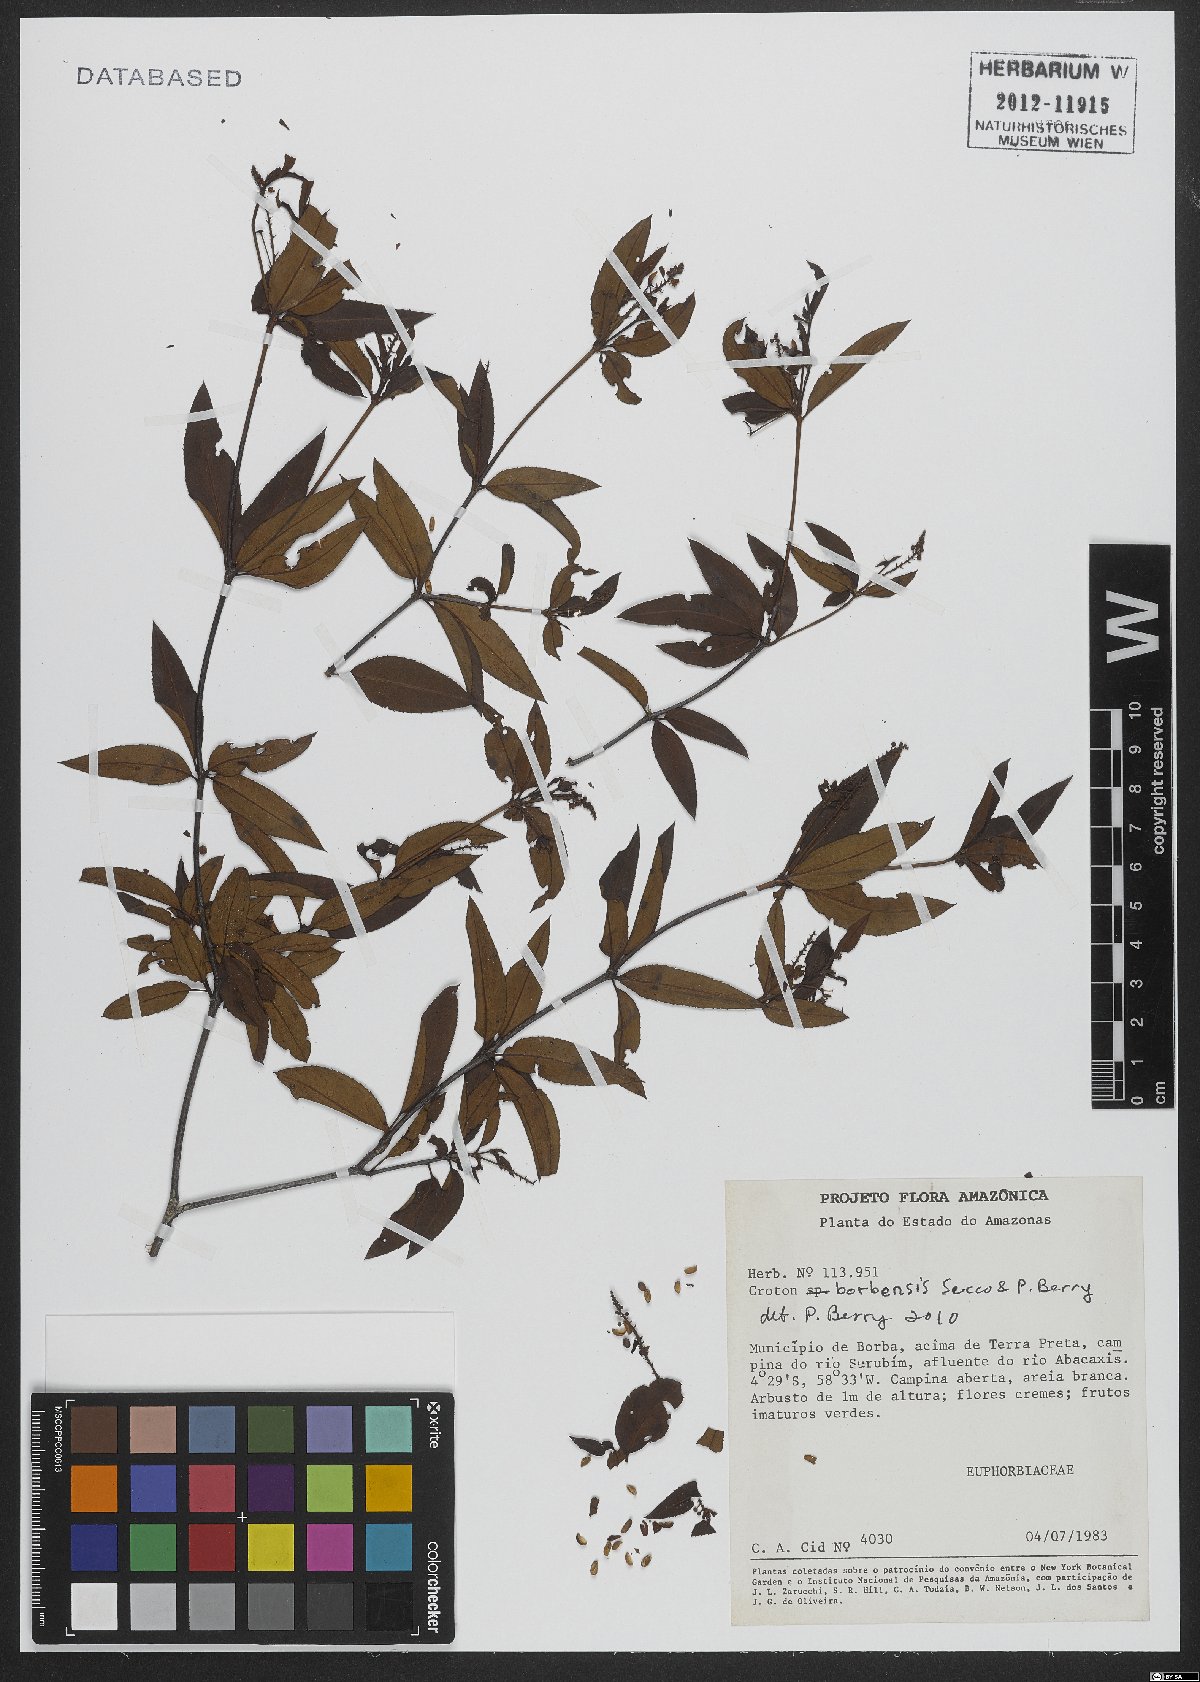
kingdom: Plantae
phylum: Tracheophyta
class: Magnoliopsida
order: Malpighiales
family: Euphorbiaceae
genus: Croton
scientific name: Croton borbensis
